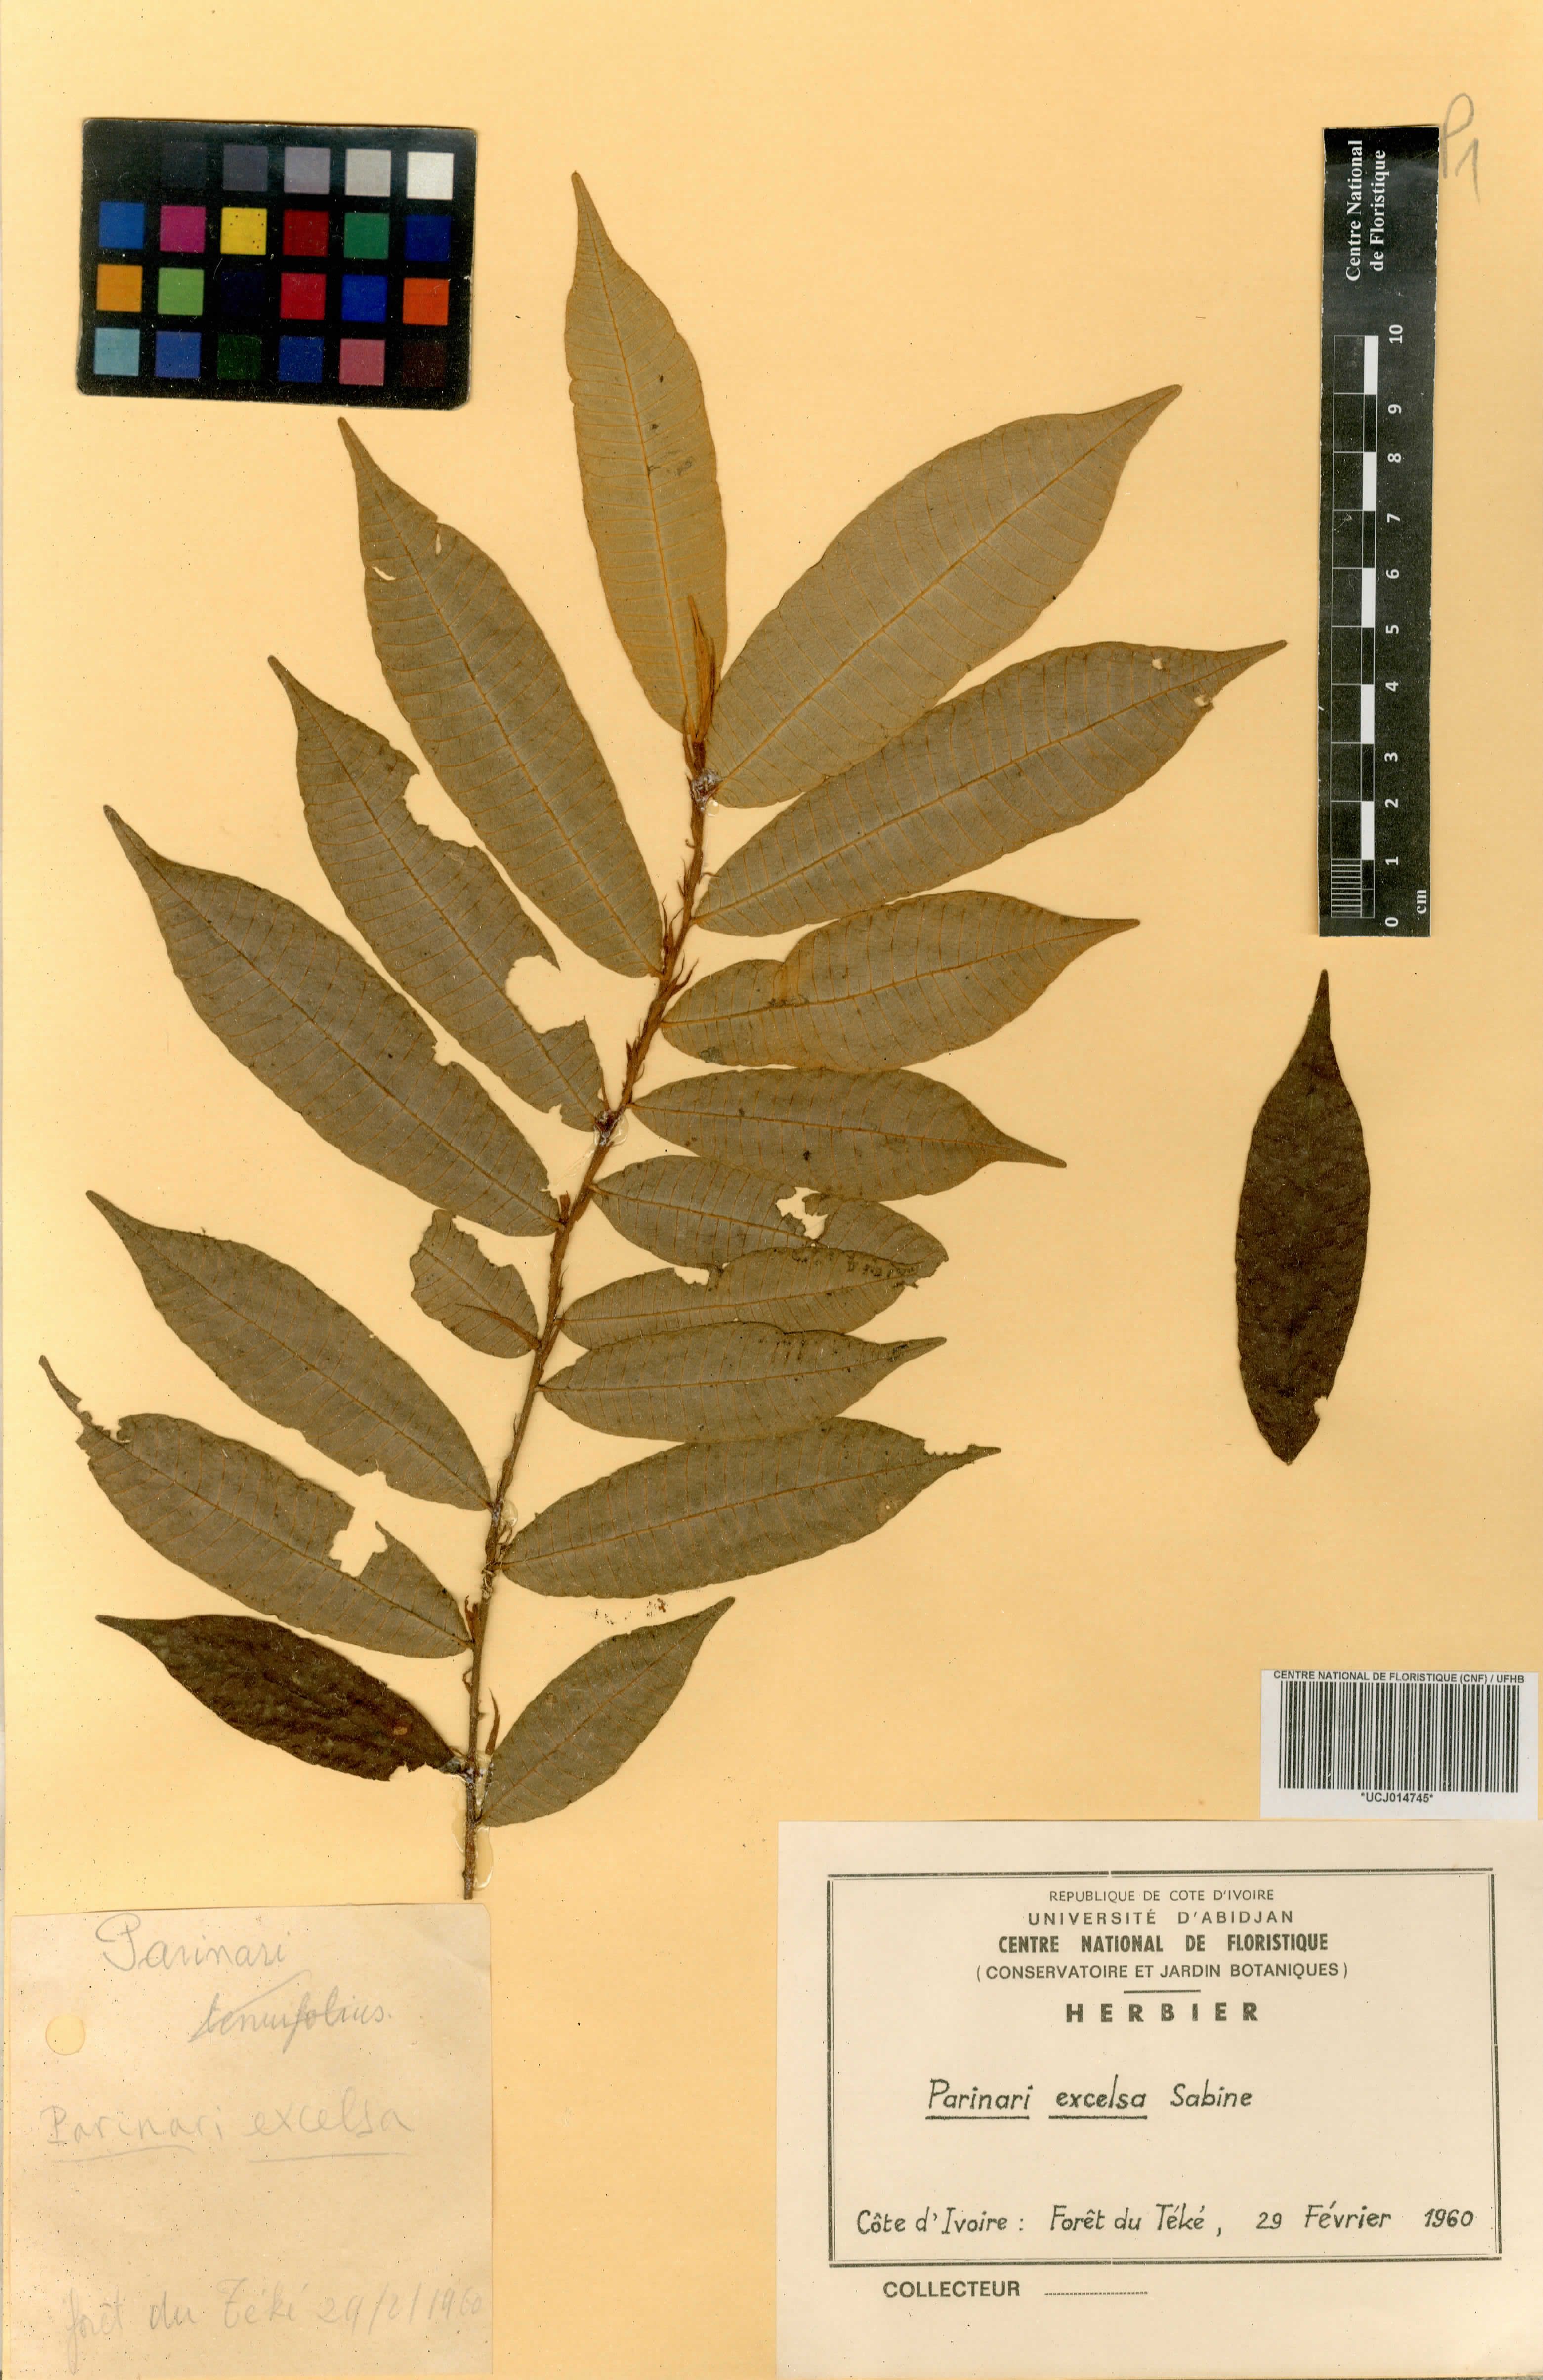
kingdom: Plantae
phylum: Tracheophyta
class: Magnoliopsida
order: Malpighiales
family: Chrysobalanaceae
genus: Parinari
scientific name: Parinari excelsa
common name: Guinea-plum
